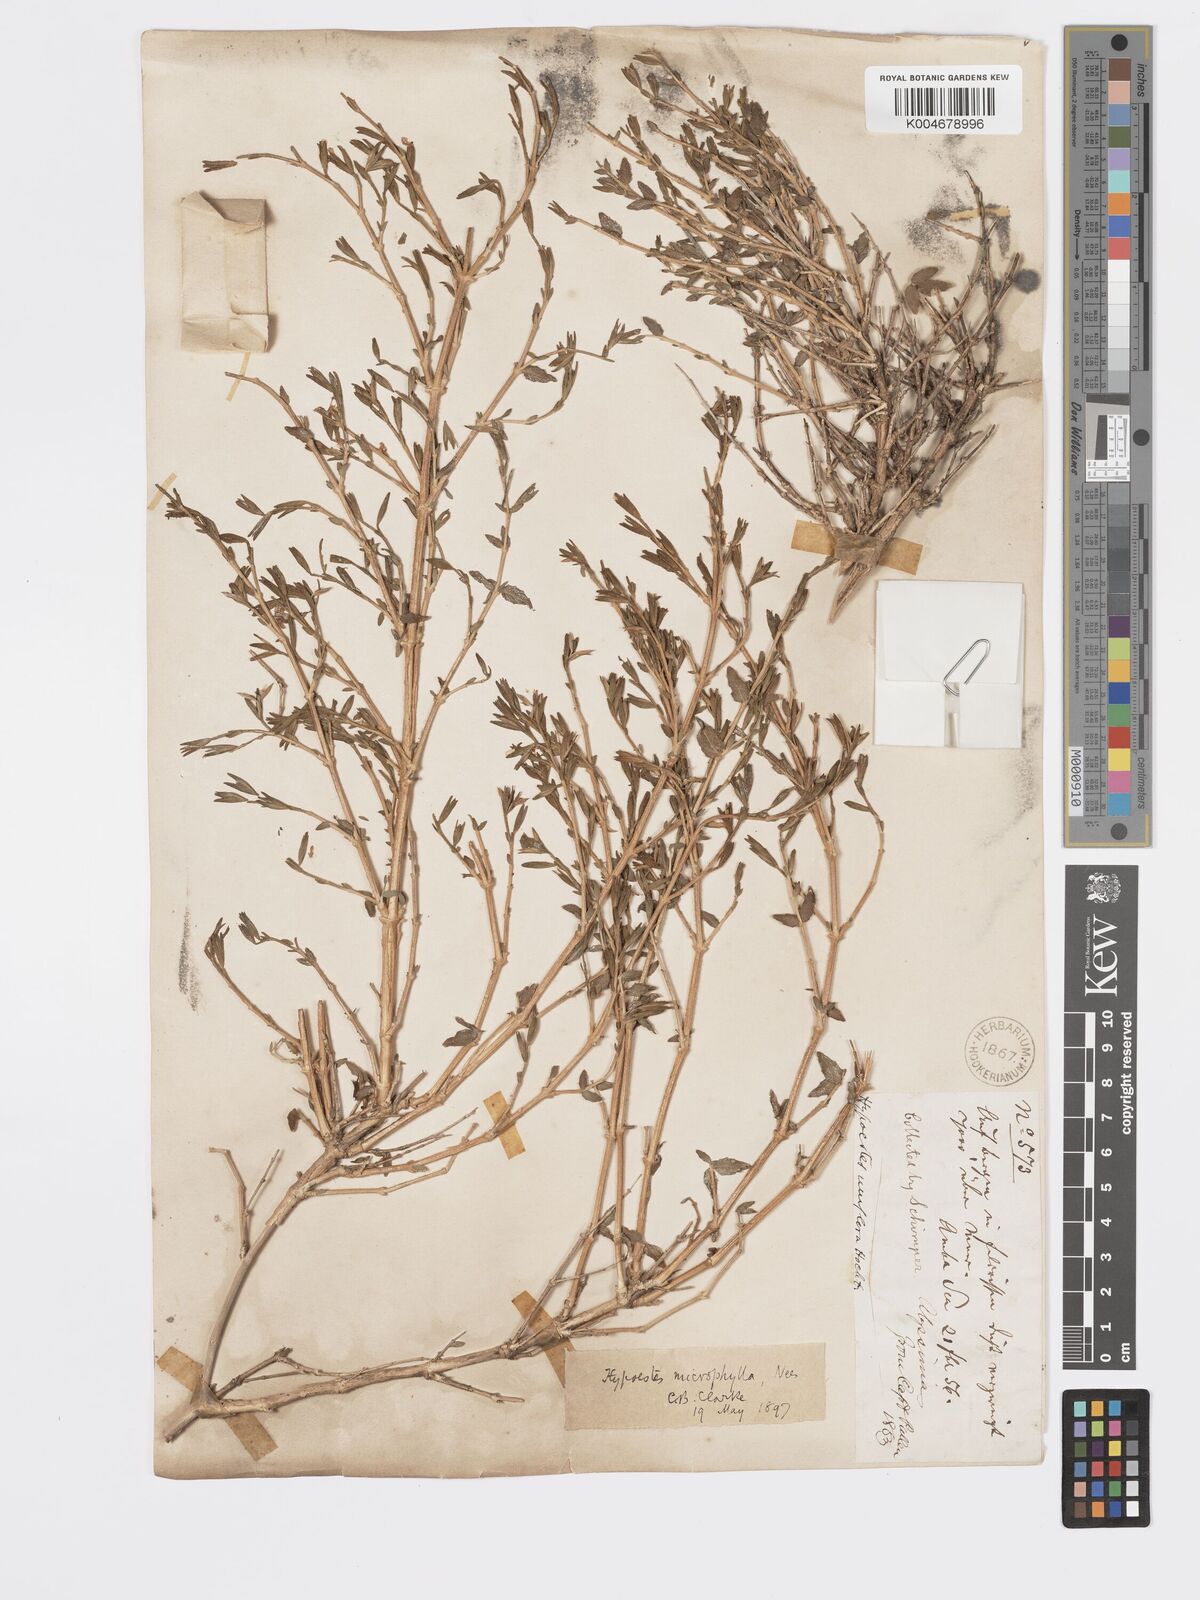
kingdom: Plantae
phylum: Tracheophyta
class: Magnoliopsida
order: Lamiales
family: Acanthaceae
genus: Hypoestes
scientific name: Hypoestes
